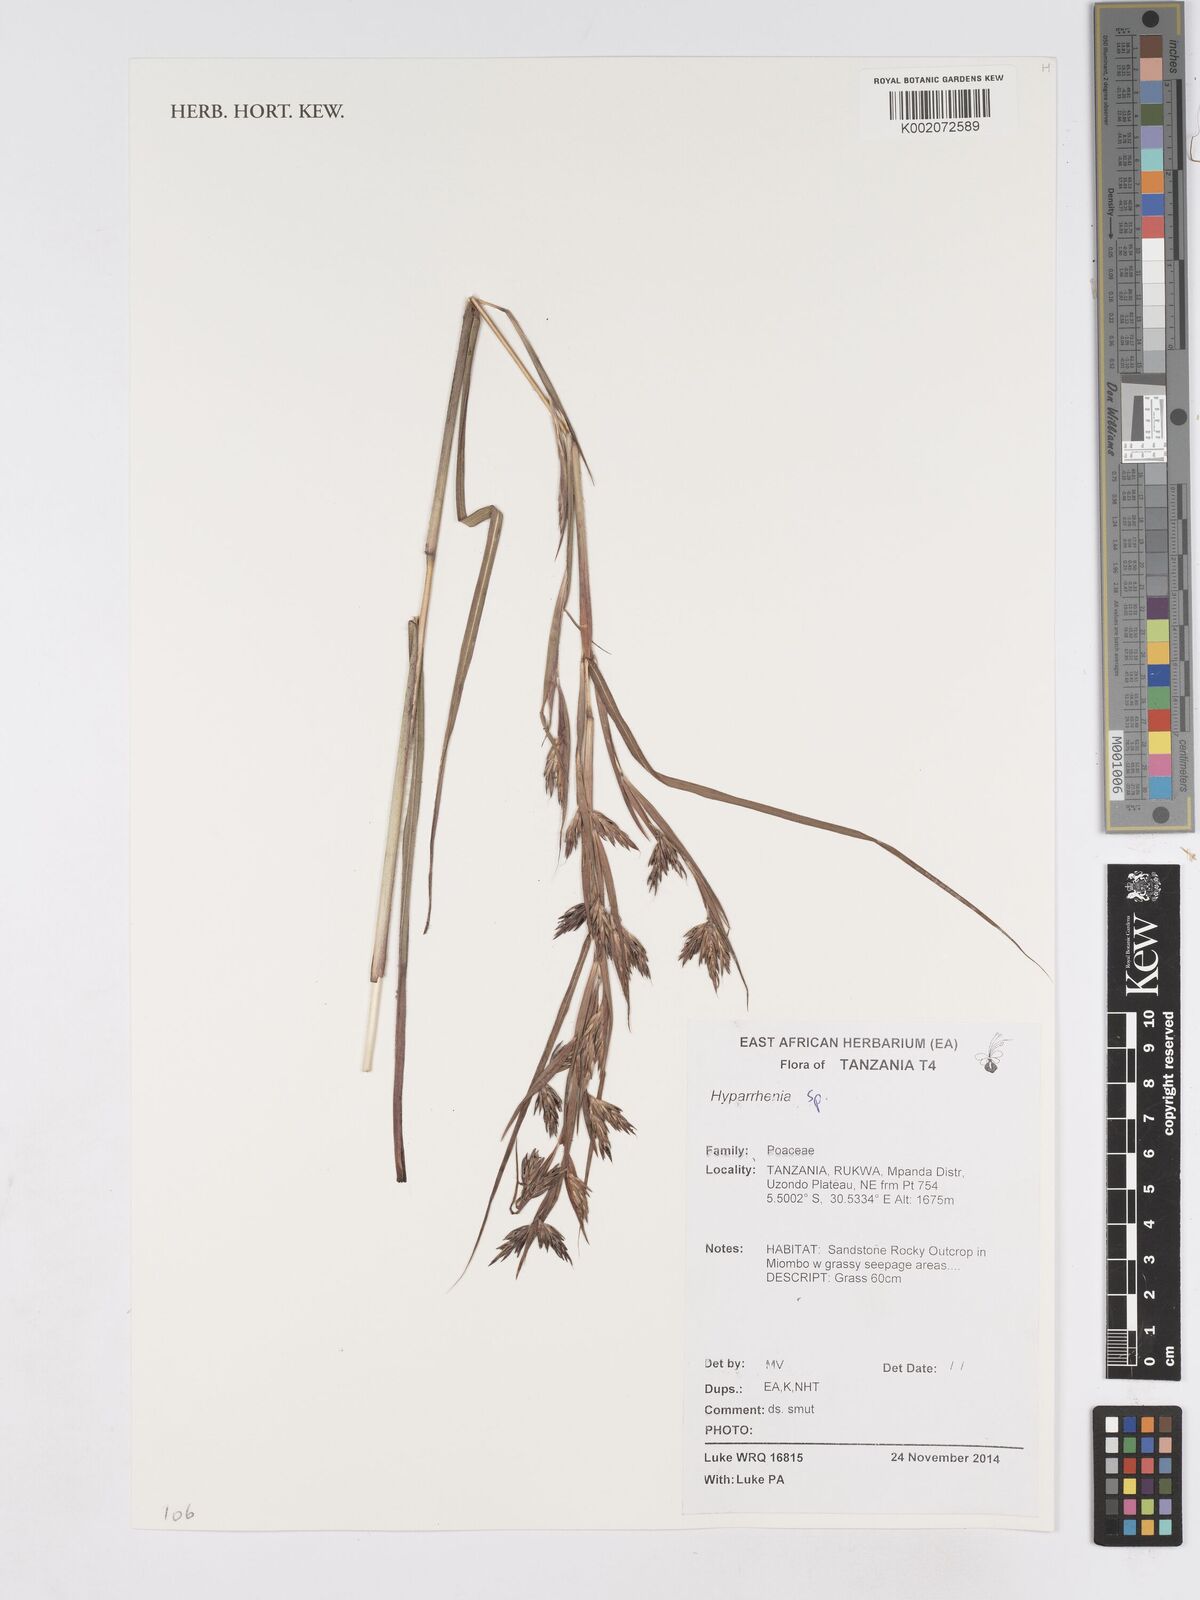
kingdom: Plantae
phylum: Tracheophyta
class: Liliopsida
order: Poales
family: Poaceae
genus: Hyparrhenia
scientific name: Hyparrhenia
